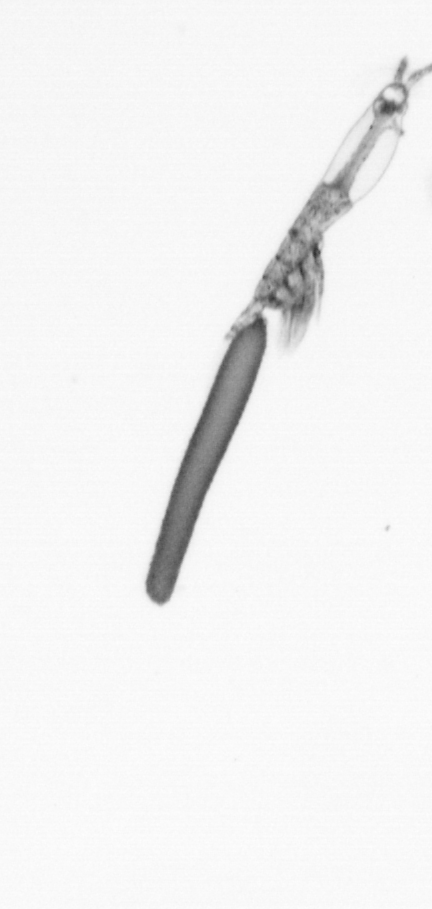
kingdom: Animalia
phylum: Arthropoda
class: Copepoda
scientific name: Copepoda
